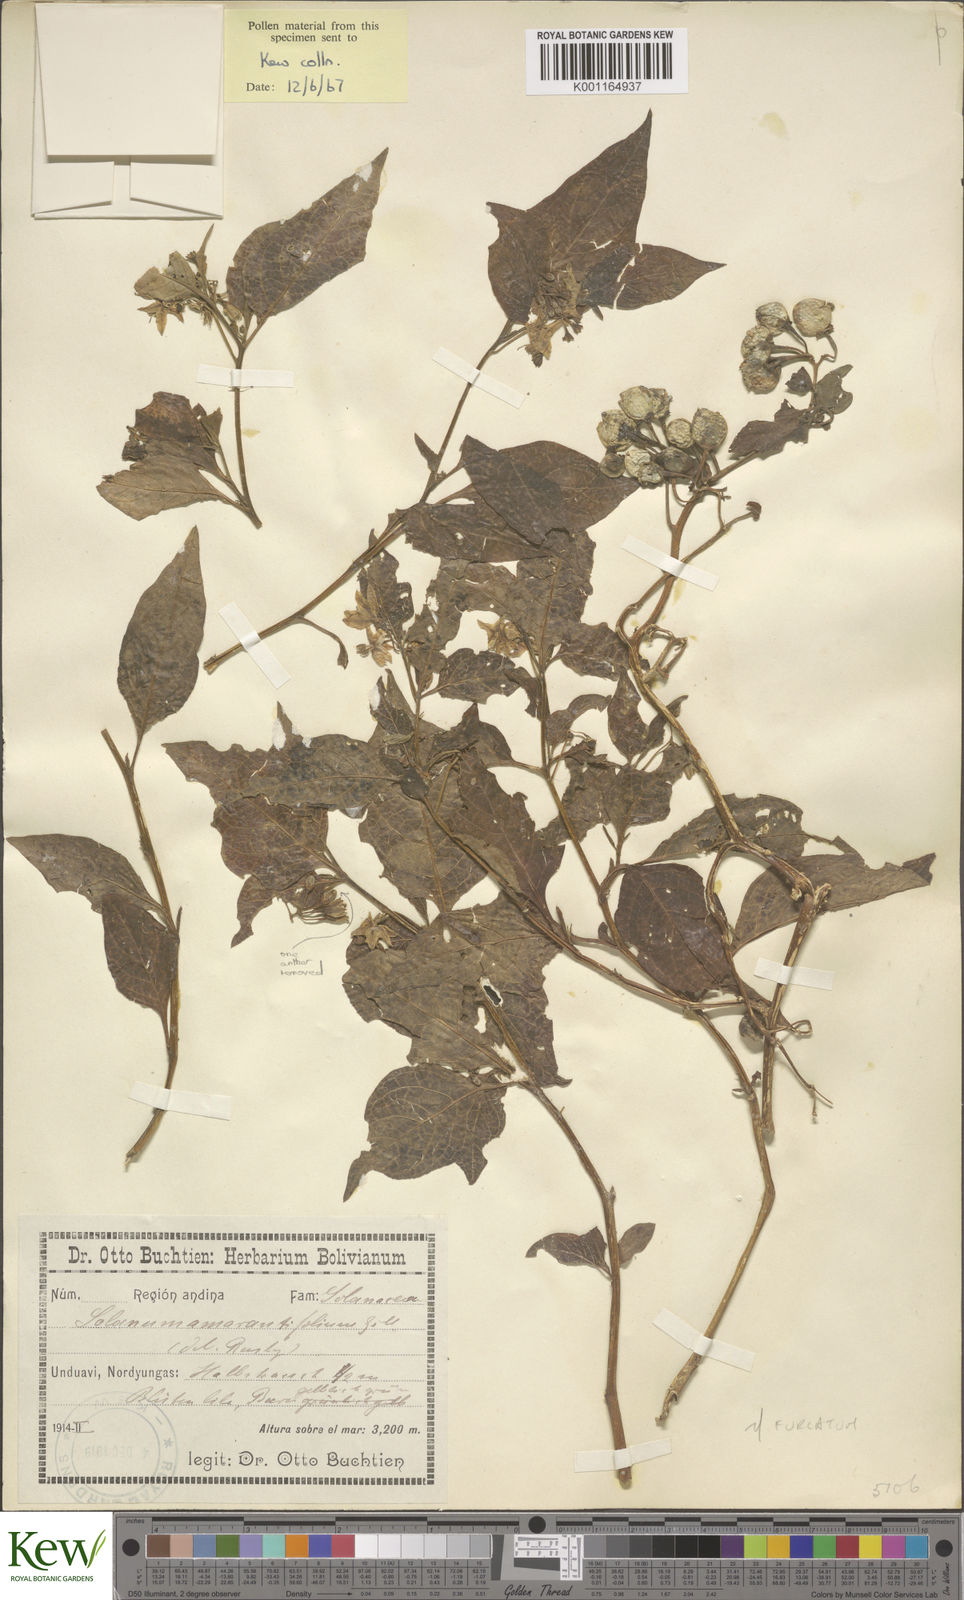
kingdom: Plantae
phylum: Tracheophyta
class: Magnoliopsida
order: Solanales
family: Solanaceae
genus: Solanum
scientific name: Solanum nudum
